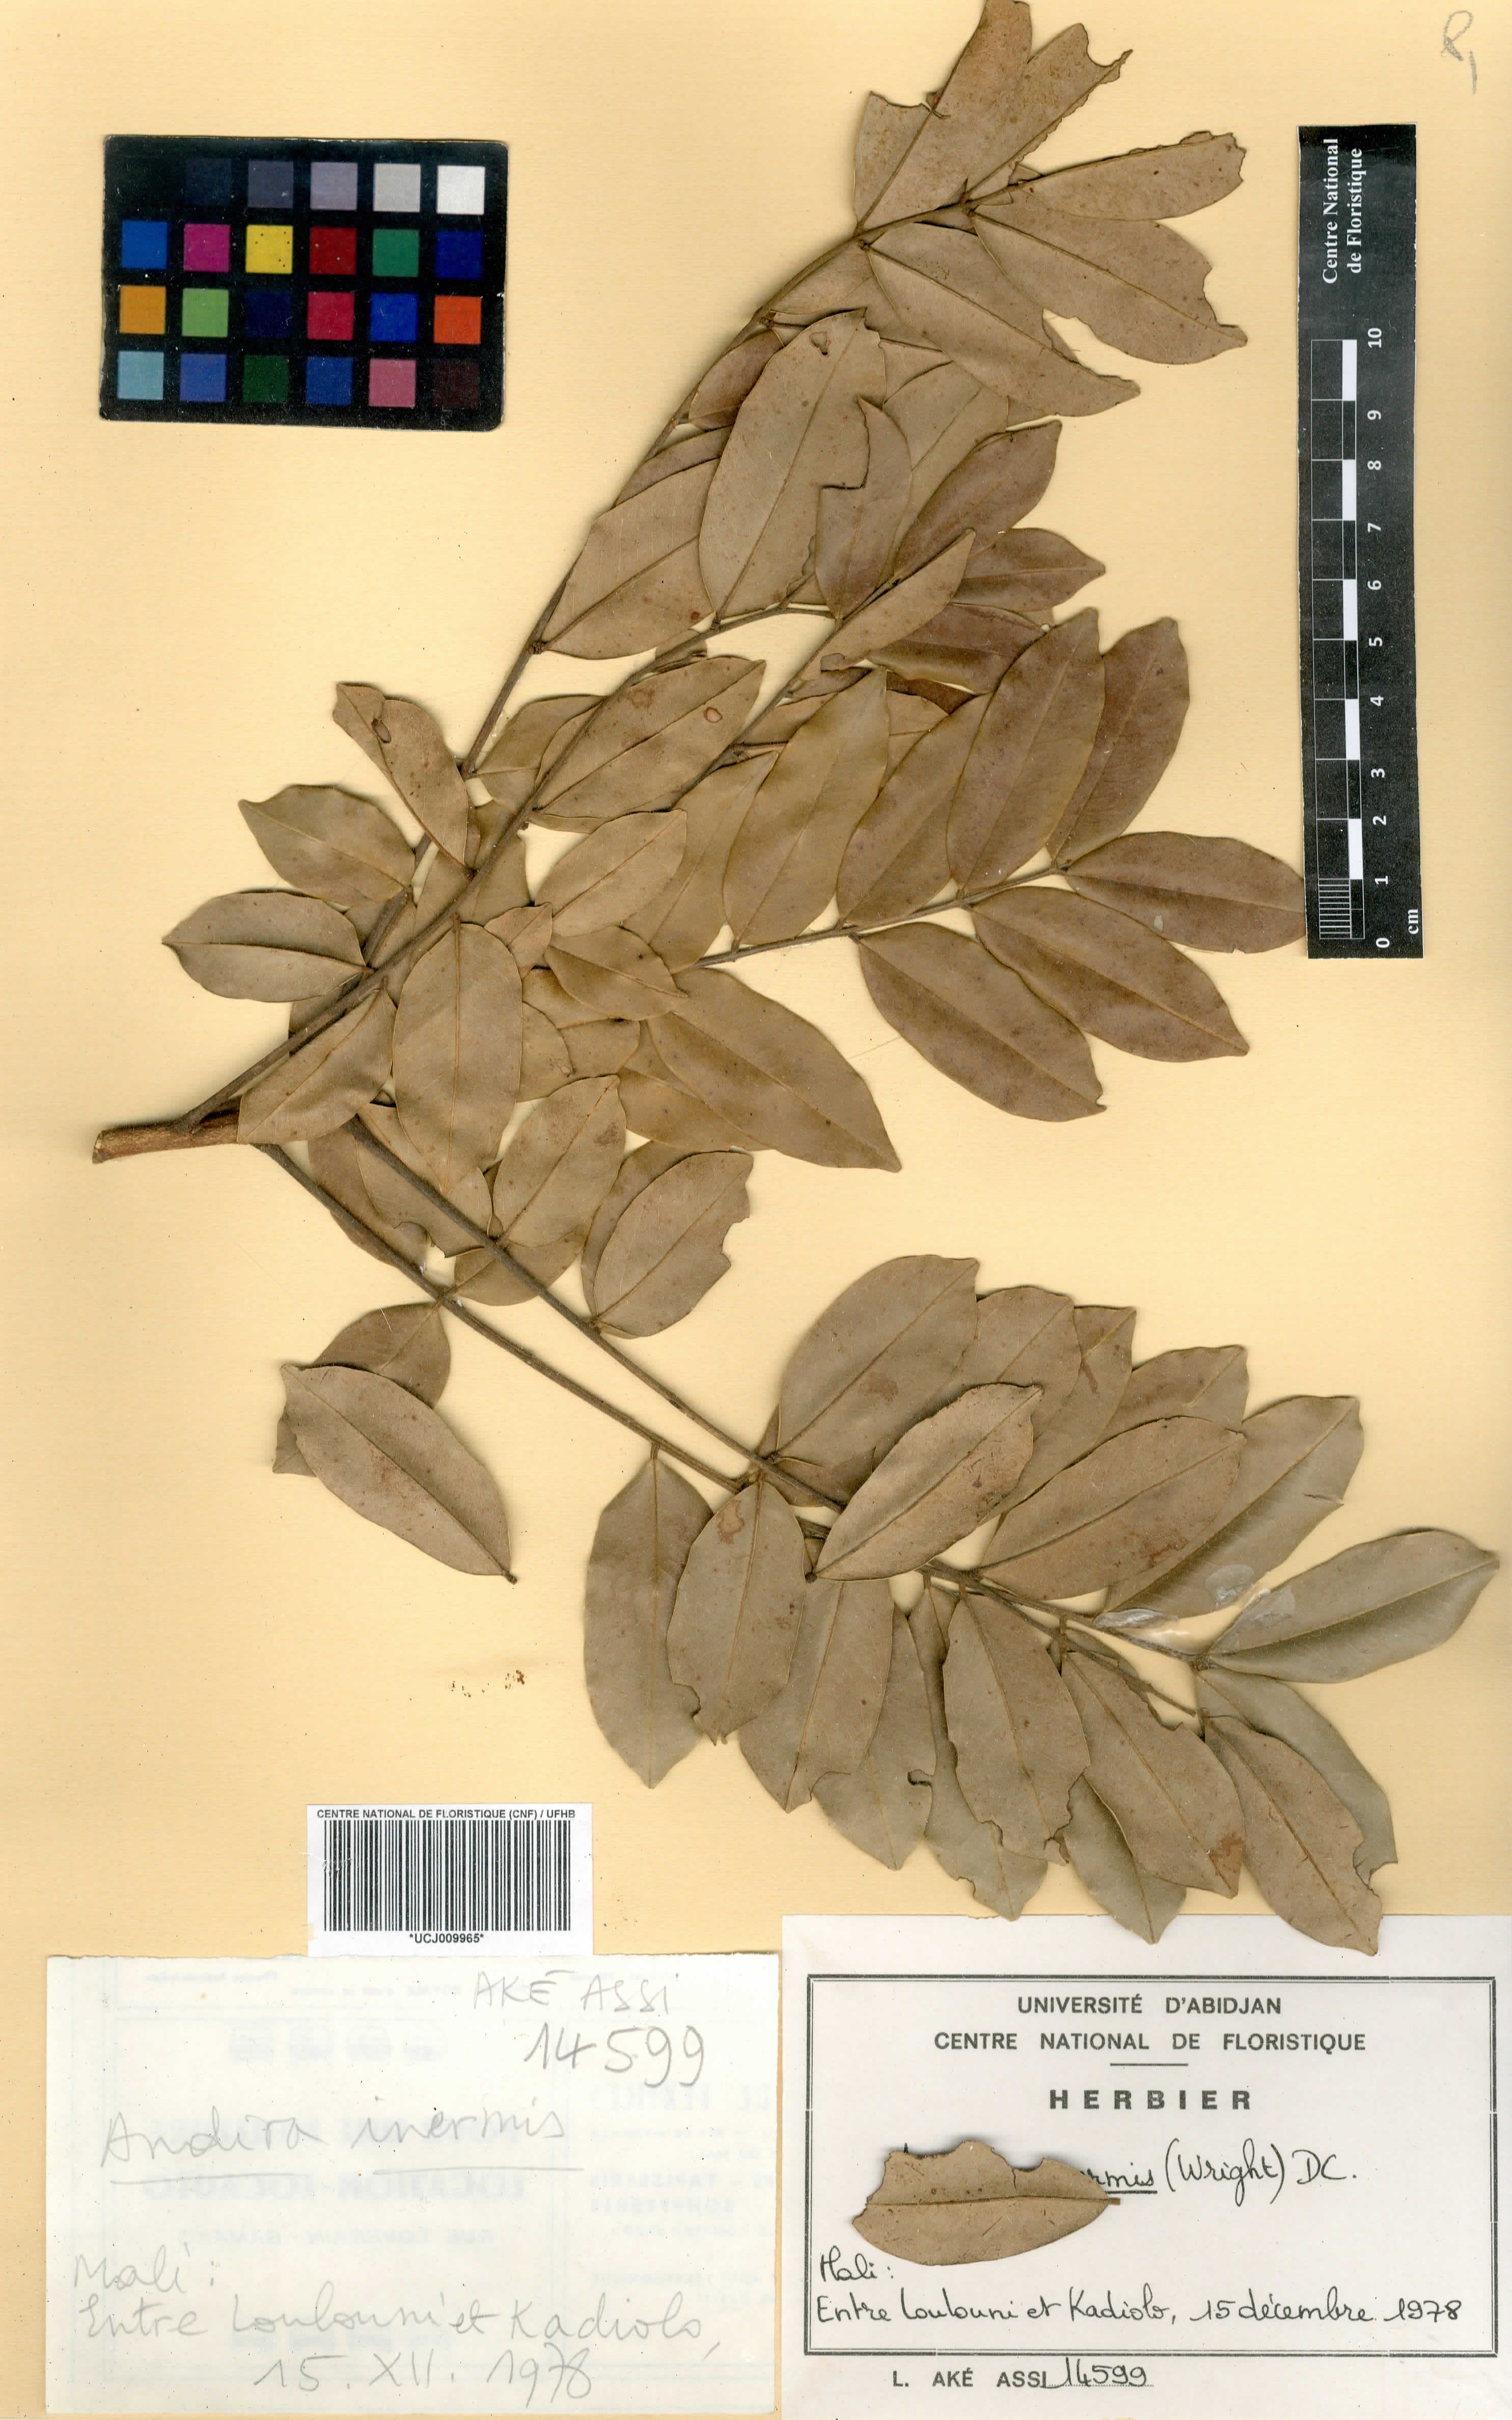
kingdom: Plantae
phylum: Tracheophyta
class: Magnoliopsida
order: Fabales
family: Fabaceae
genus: Andira
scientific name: Andira inermis
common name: Angelin
